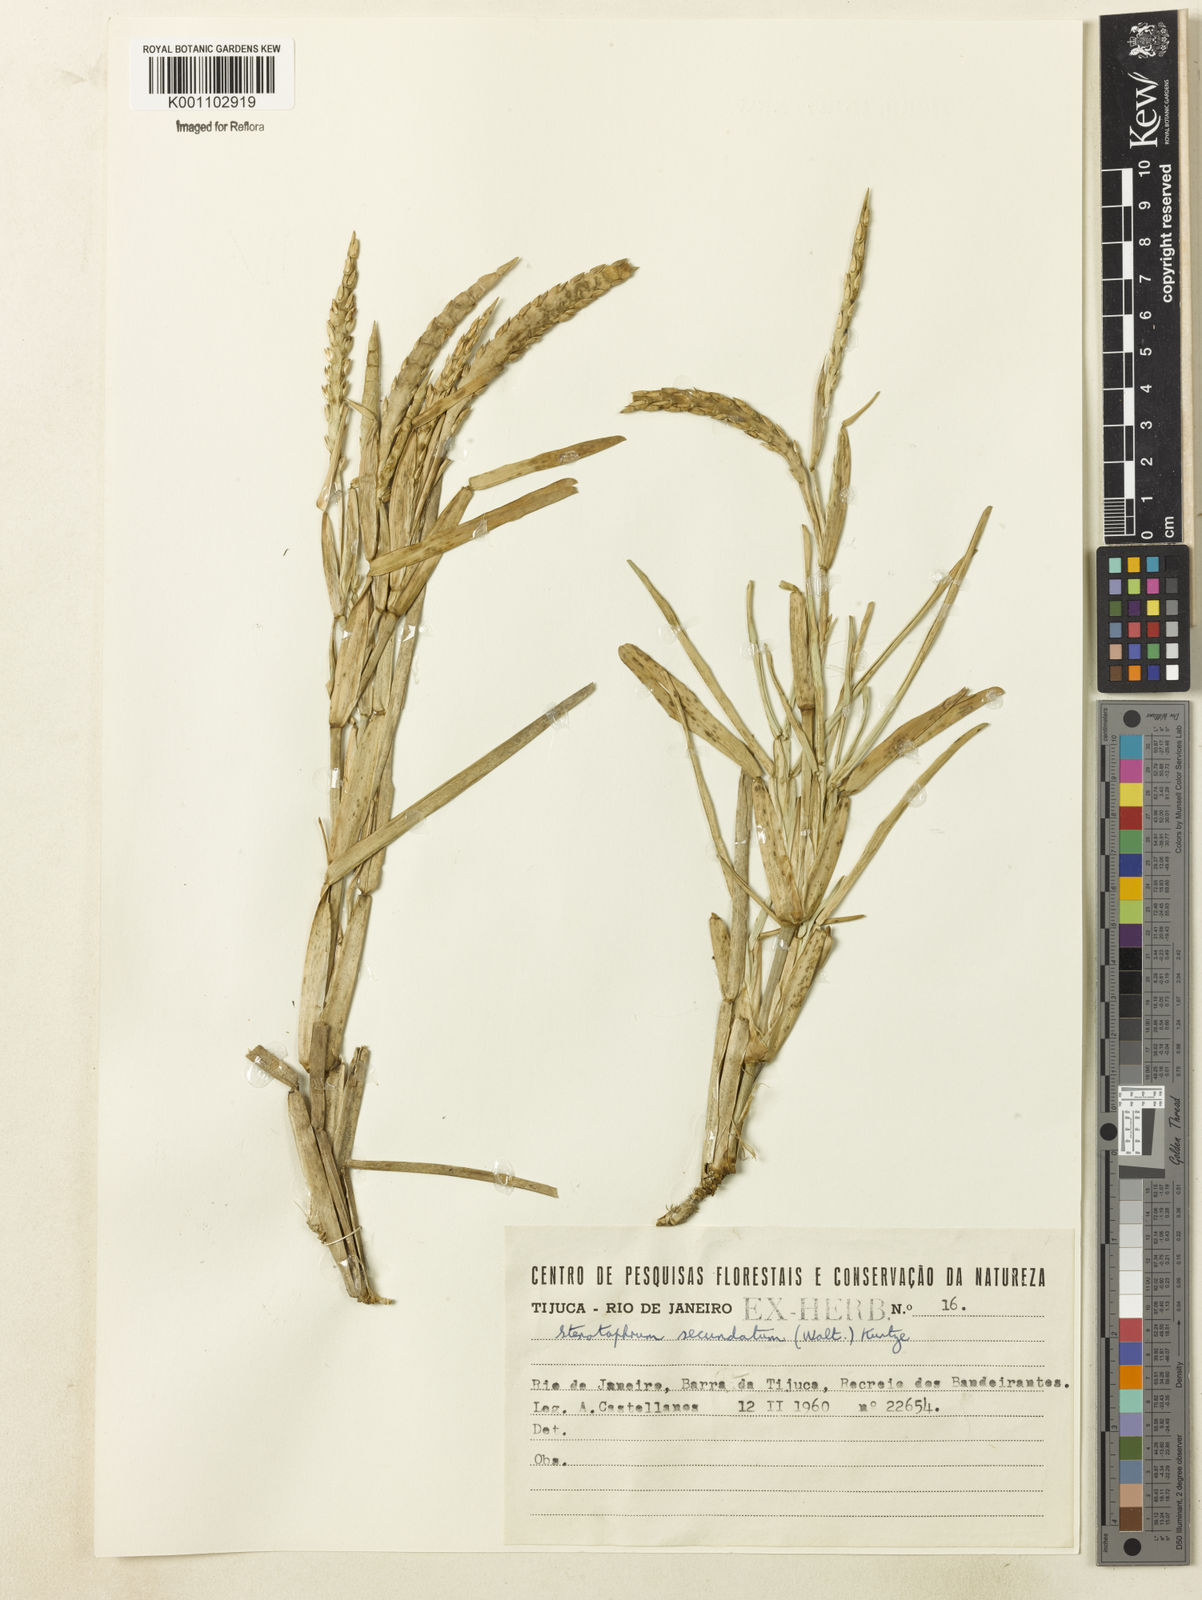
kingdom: Plantae
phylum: Tracheophyta
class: Liliopsida
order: Poales
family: Poaceae
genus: Stenotaphrum
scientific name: Stenotaphrum secundatum
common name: St. augustine grass
